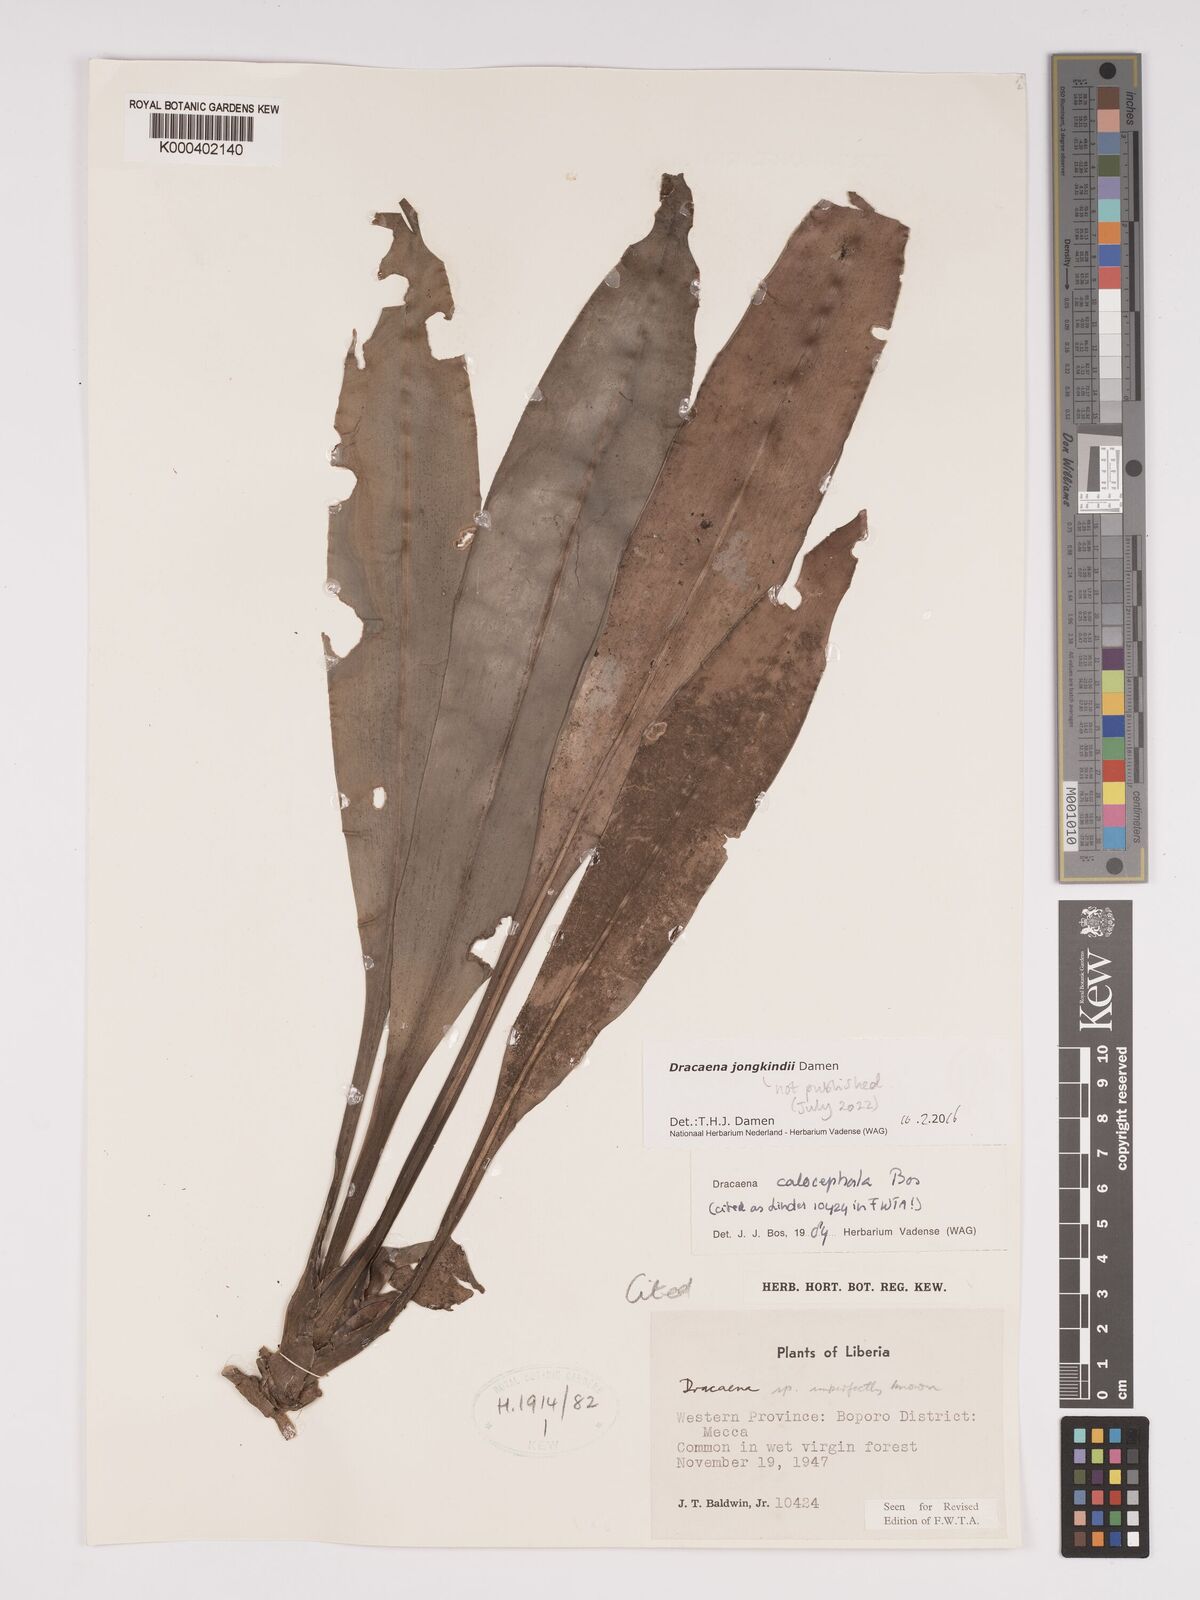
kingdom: Plantae
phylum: Tracheophyta
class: Liliopsida
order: Asparagales
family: Asparagaceae
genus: Dracaena
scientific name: Dracaena calocephala
